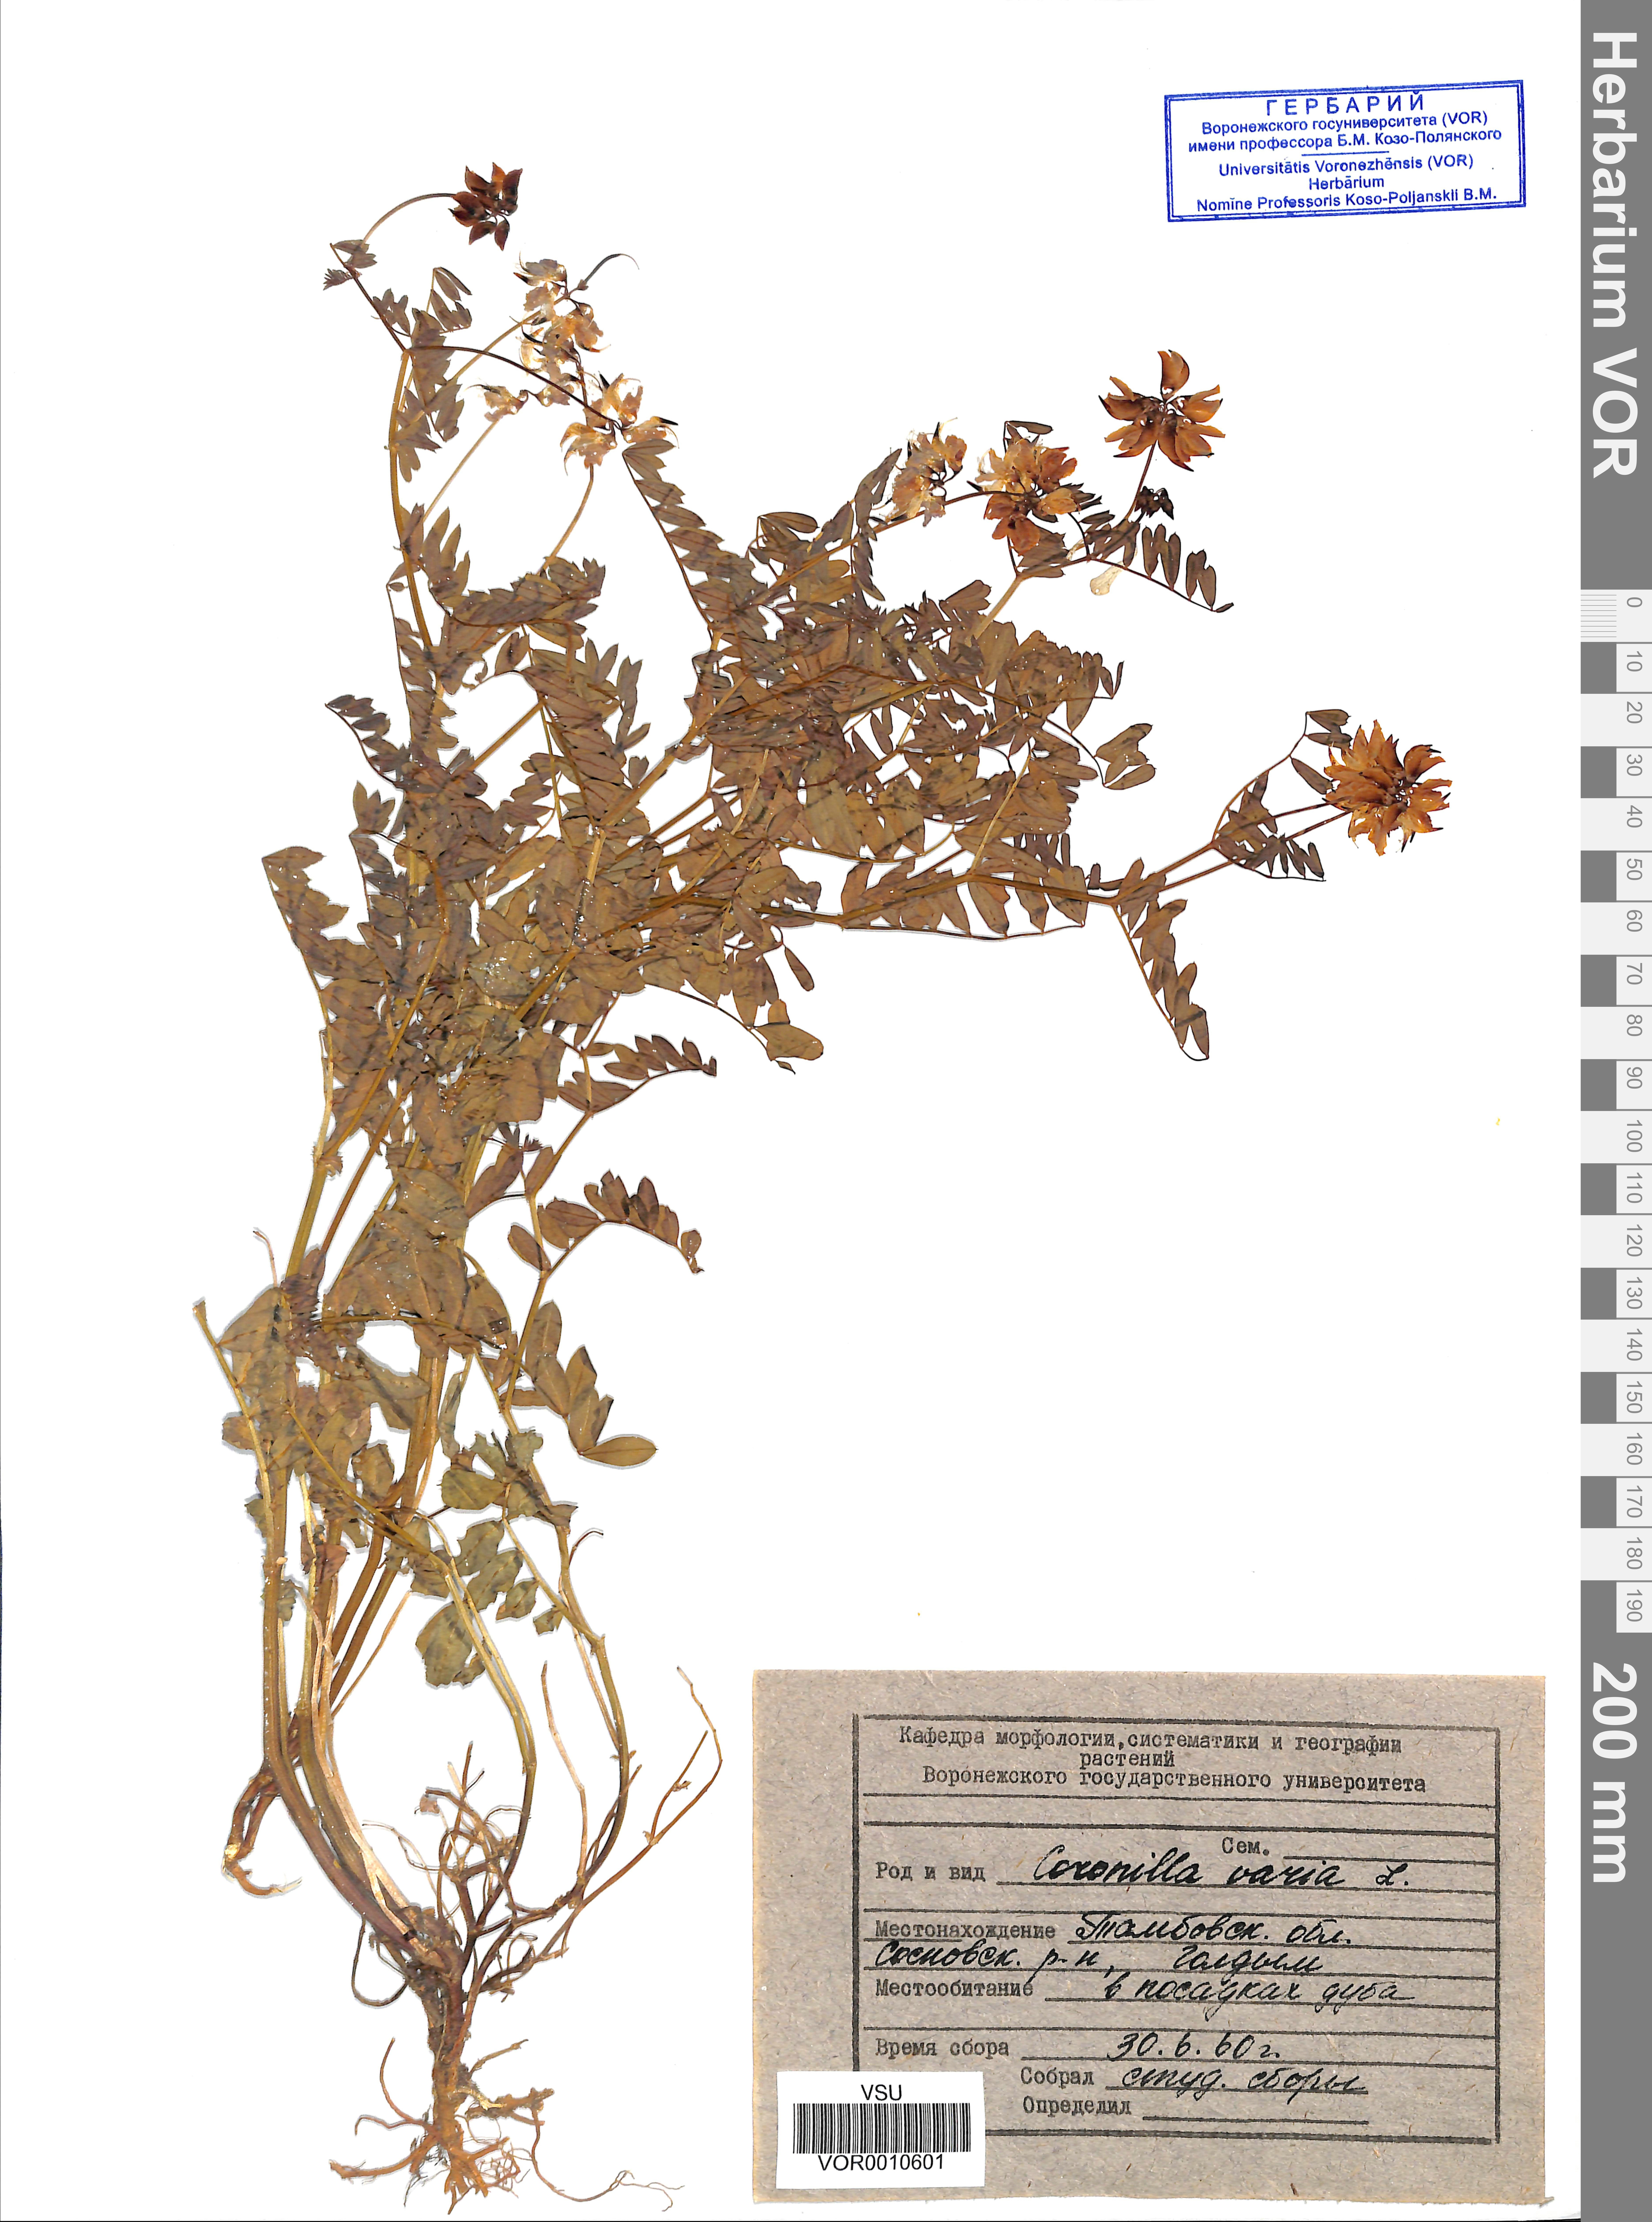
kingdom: Plantae
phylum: Tracheophyta
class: Magnoliopsida
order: Fabales
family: Fabaceae
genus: Coronilla
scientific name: Coronilla varia
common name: Crownvetch
